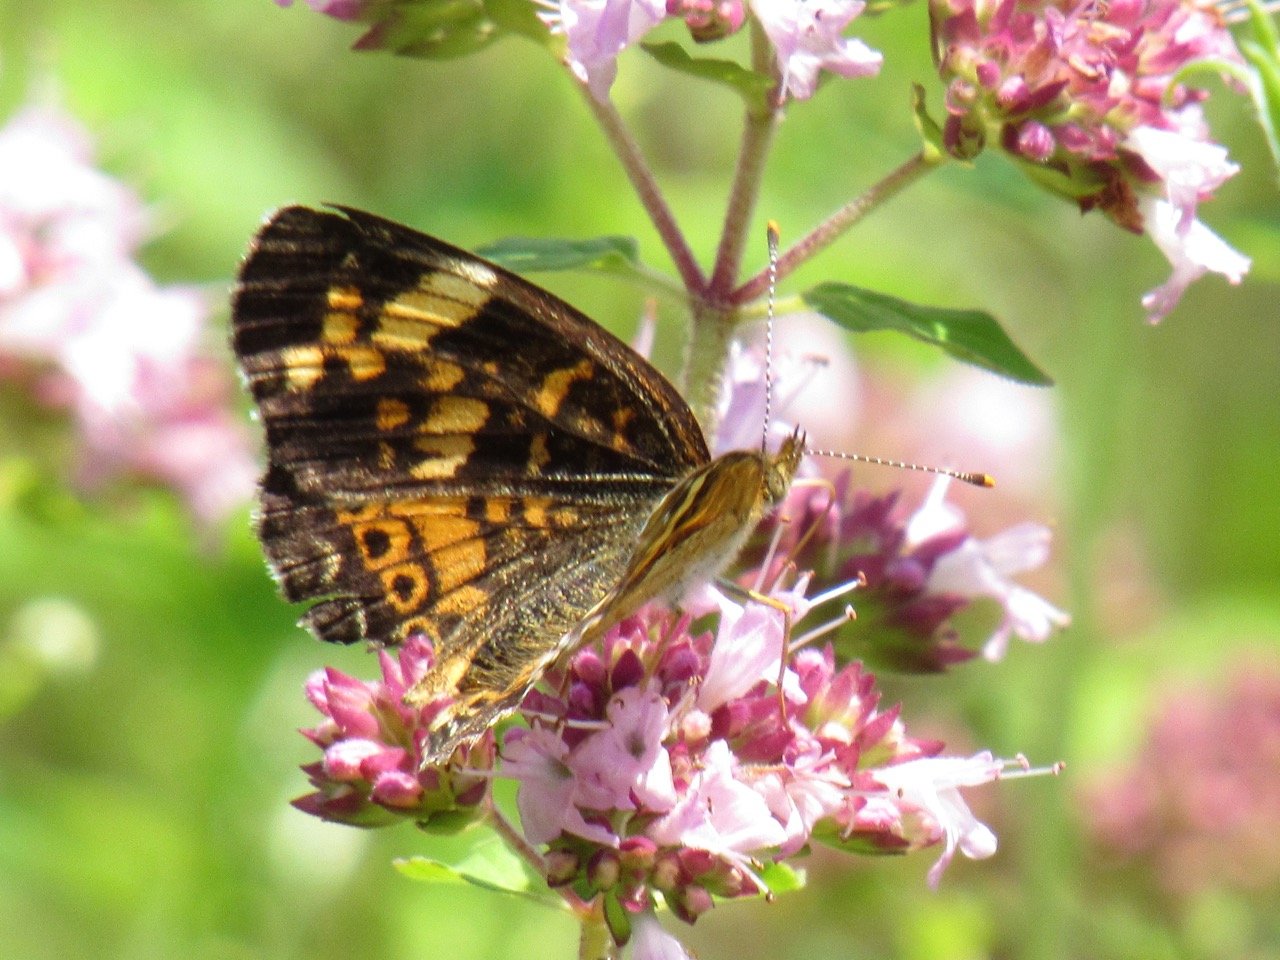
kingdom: Animalia
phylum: Arthropoda
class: Insecta
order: Lepidoptera
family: Nymphalidae
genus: Phyciodes
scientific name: Phyciodes tharos
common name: Pearl Crescent
